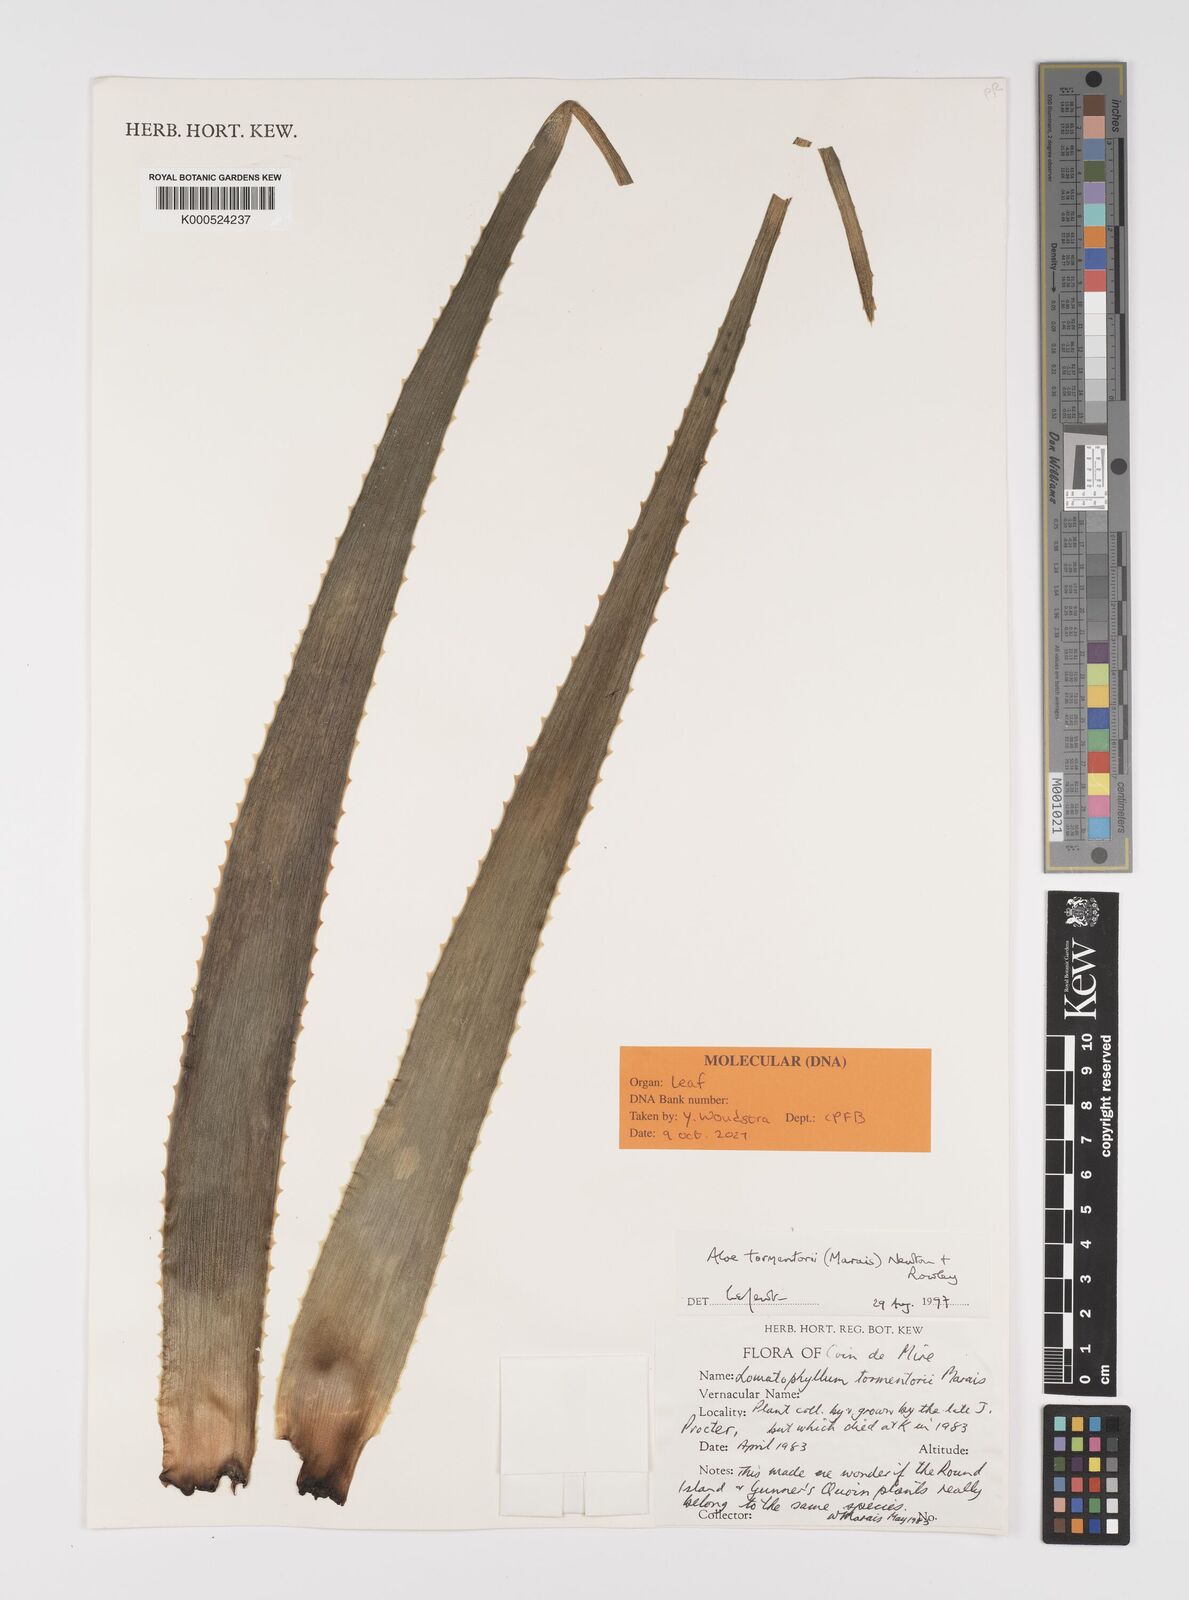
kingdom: Plantae
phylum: Tracheophyta
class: Liliopsida
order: Asparagales
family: Asphodelaceae
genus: Aloe
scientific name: Aloe tormentorii
